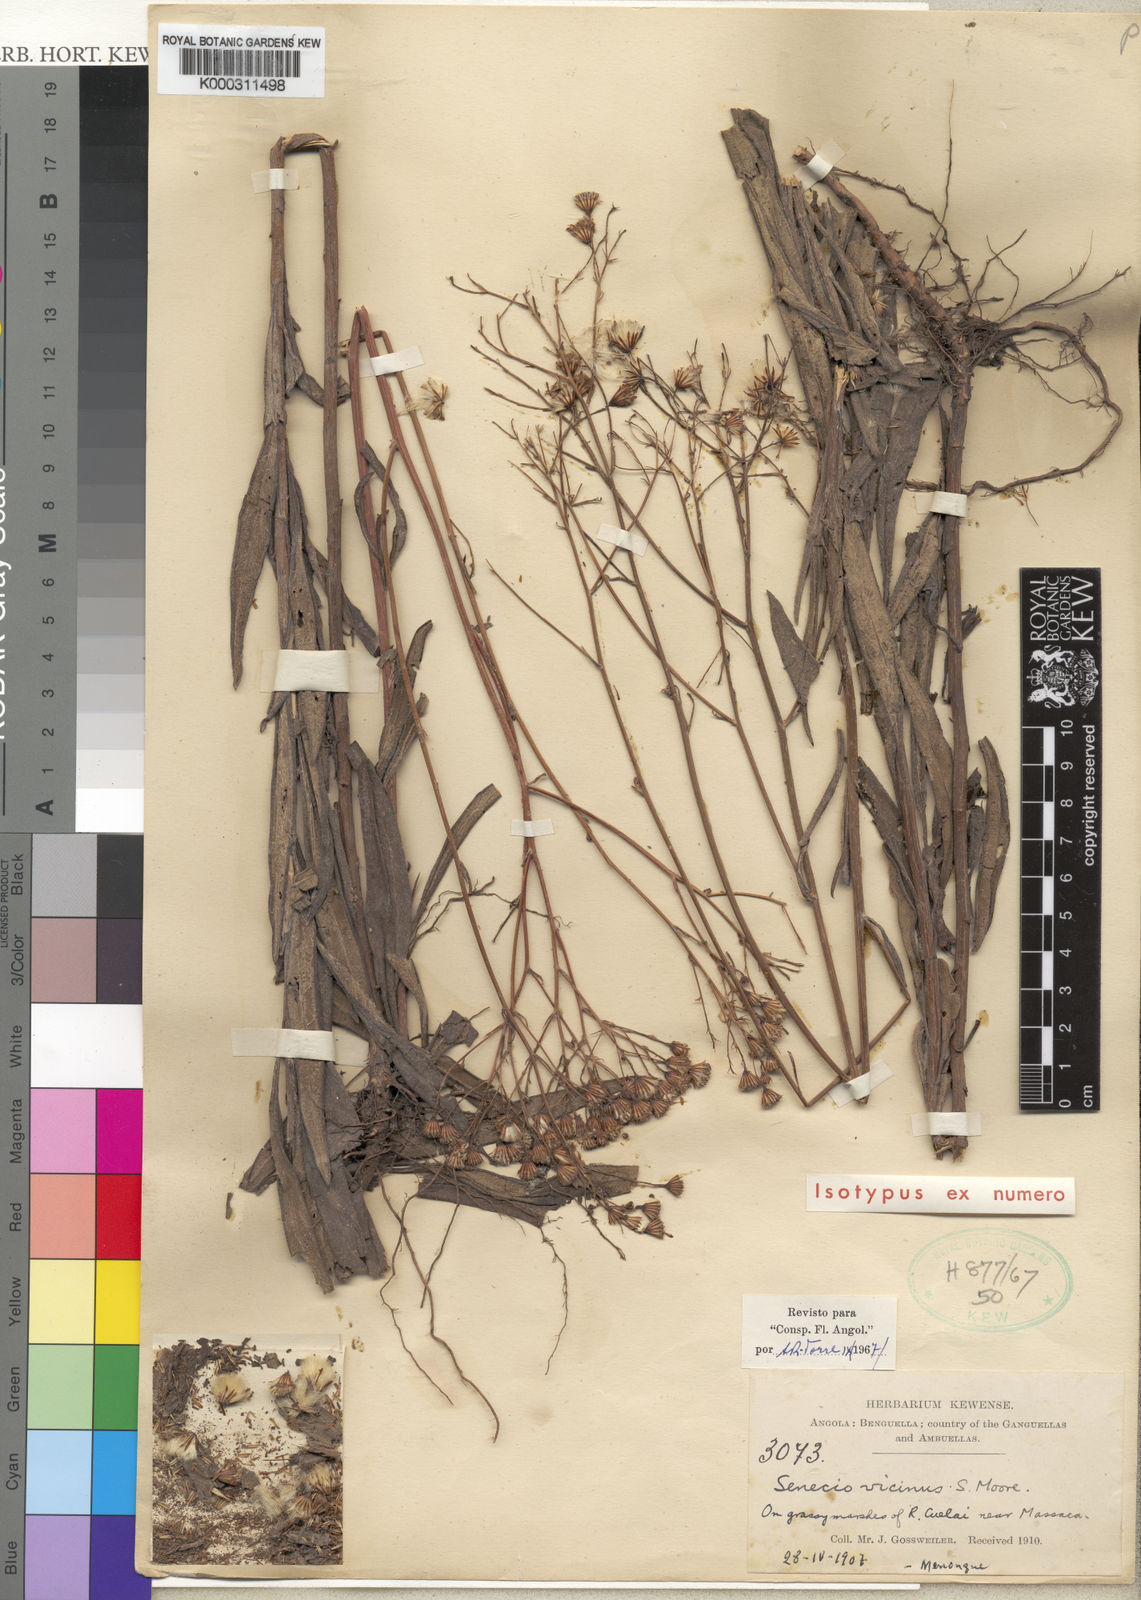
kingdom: Plantae
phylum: Tracheophyta
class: Magnoliopsida
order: Asterales
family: Asteraceae
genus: Senecio
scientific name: Senecio vicinus
